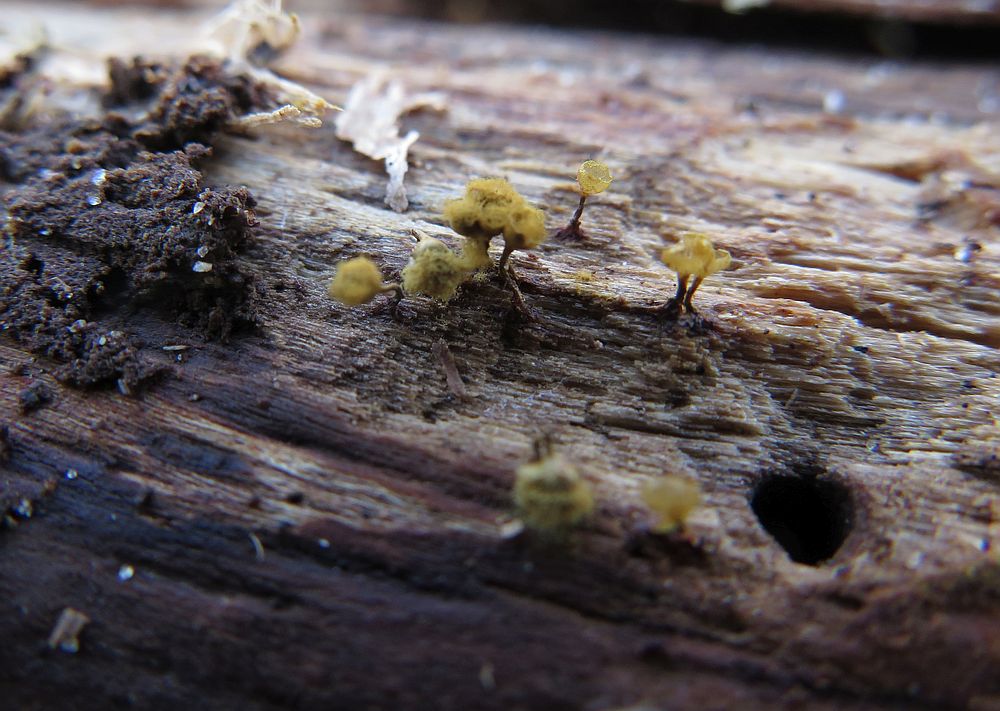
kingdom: Protozoa
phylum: Mycetozoa
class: Myxomycetes
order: Trichiales
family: Trichiaceae
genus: Trichia
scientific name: Trichia crateriformis
